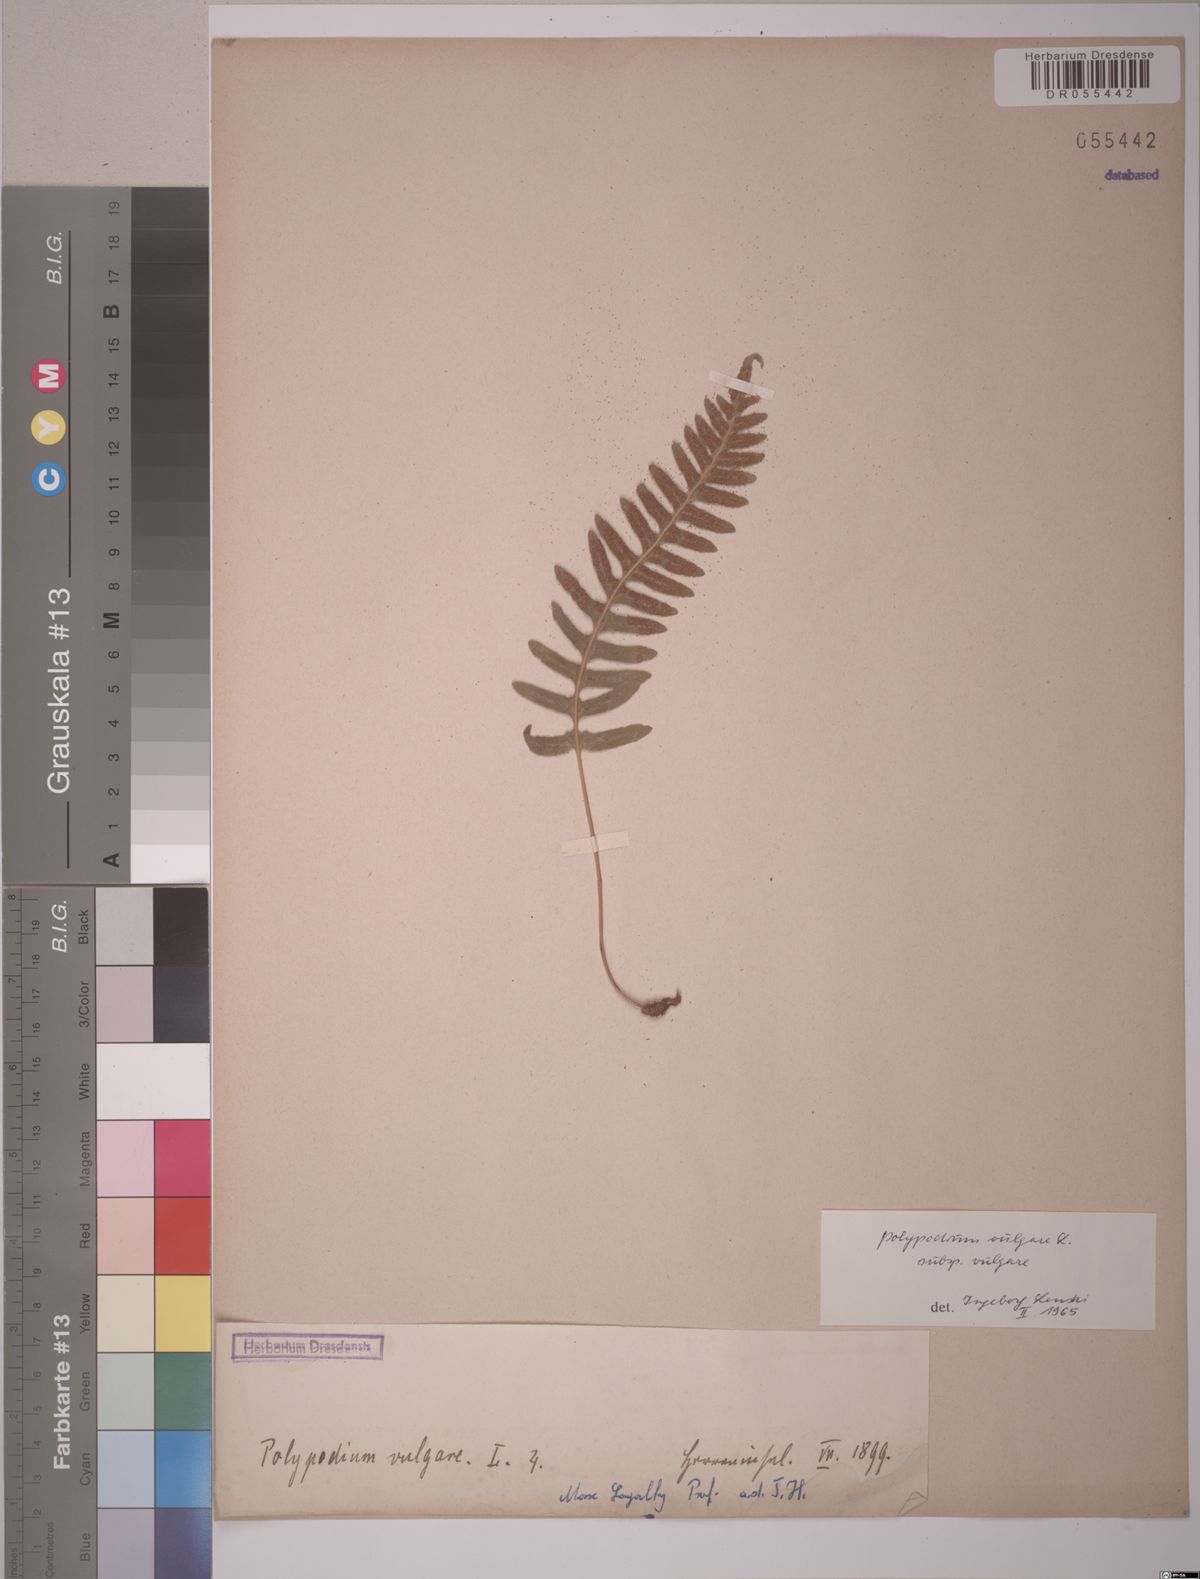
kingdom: Plantae
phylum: Tracheophyta
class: Polypodiopsida
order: Polypodiales
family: Polypodiaceae
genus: Polypodium
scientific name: Polypodium vulgare
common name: Common polypody
